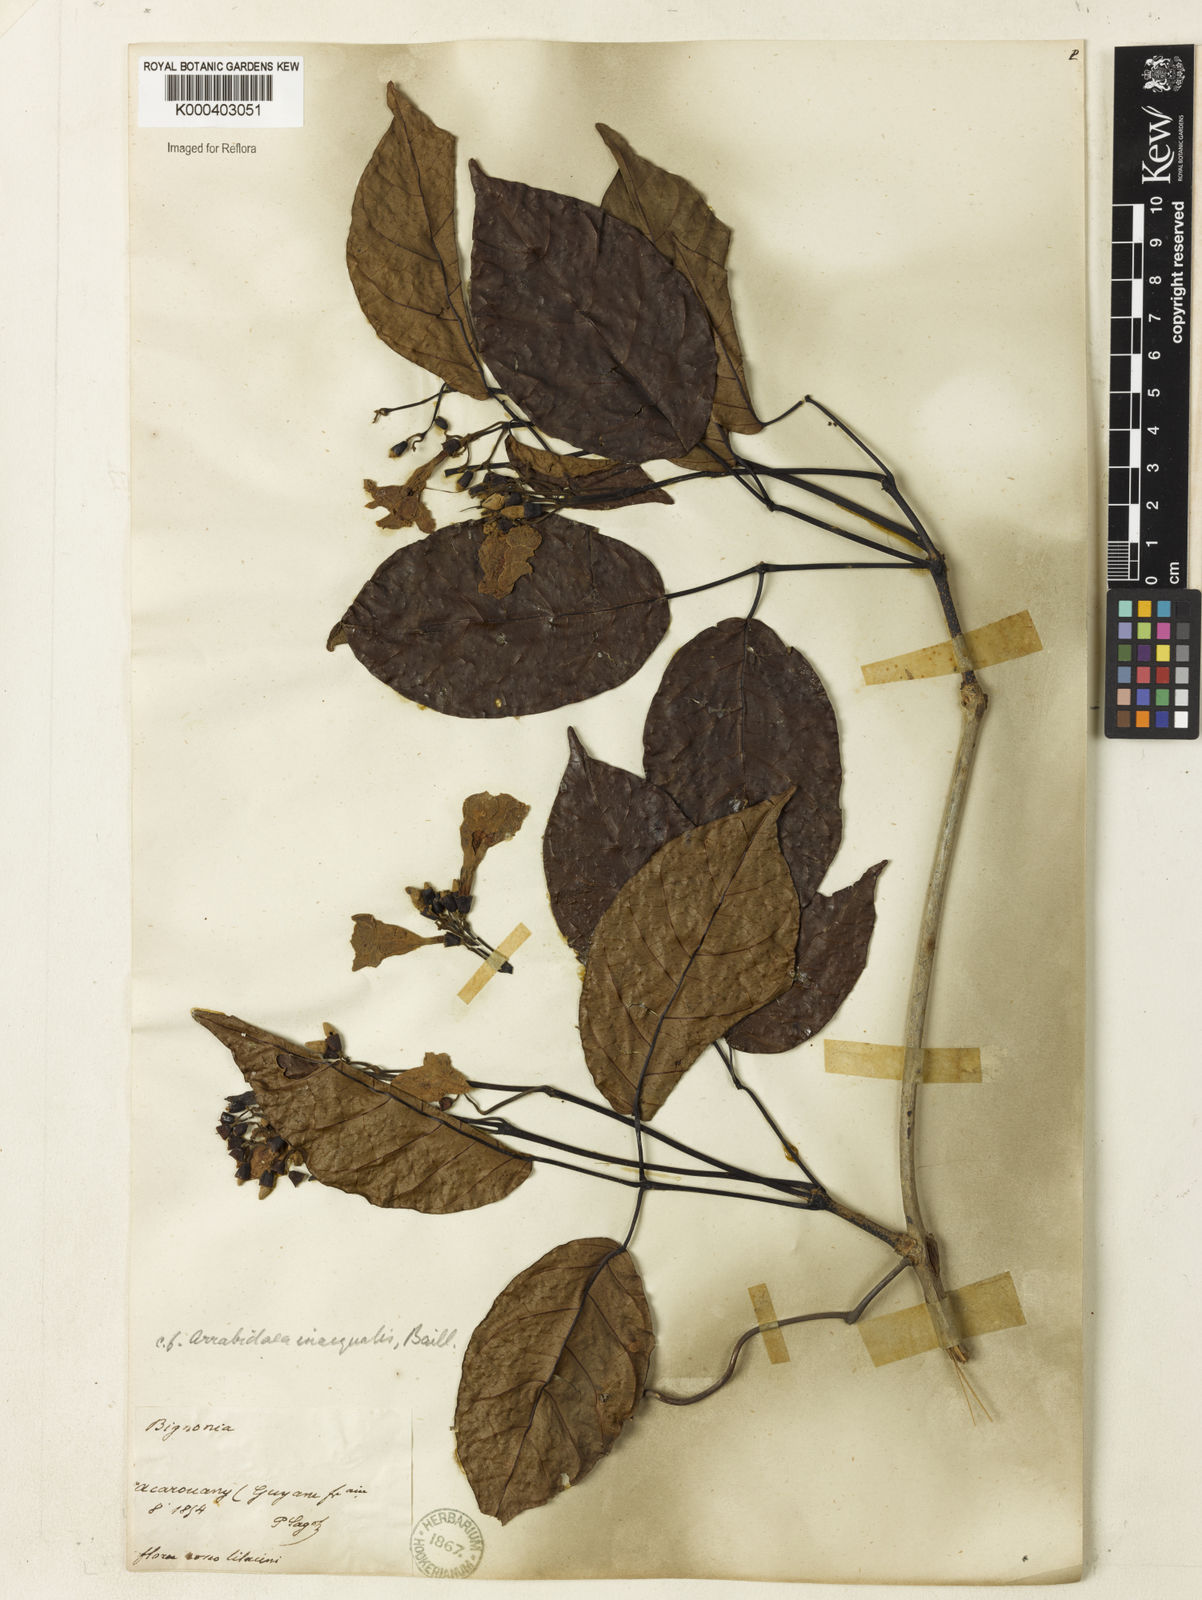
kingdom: Plantae
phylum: Tracheophyta
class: Magnoliopsida
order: Lamiales
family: Bignoniaceae
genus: Cuspidaria
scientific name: Cuspidaria inaequalis
